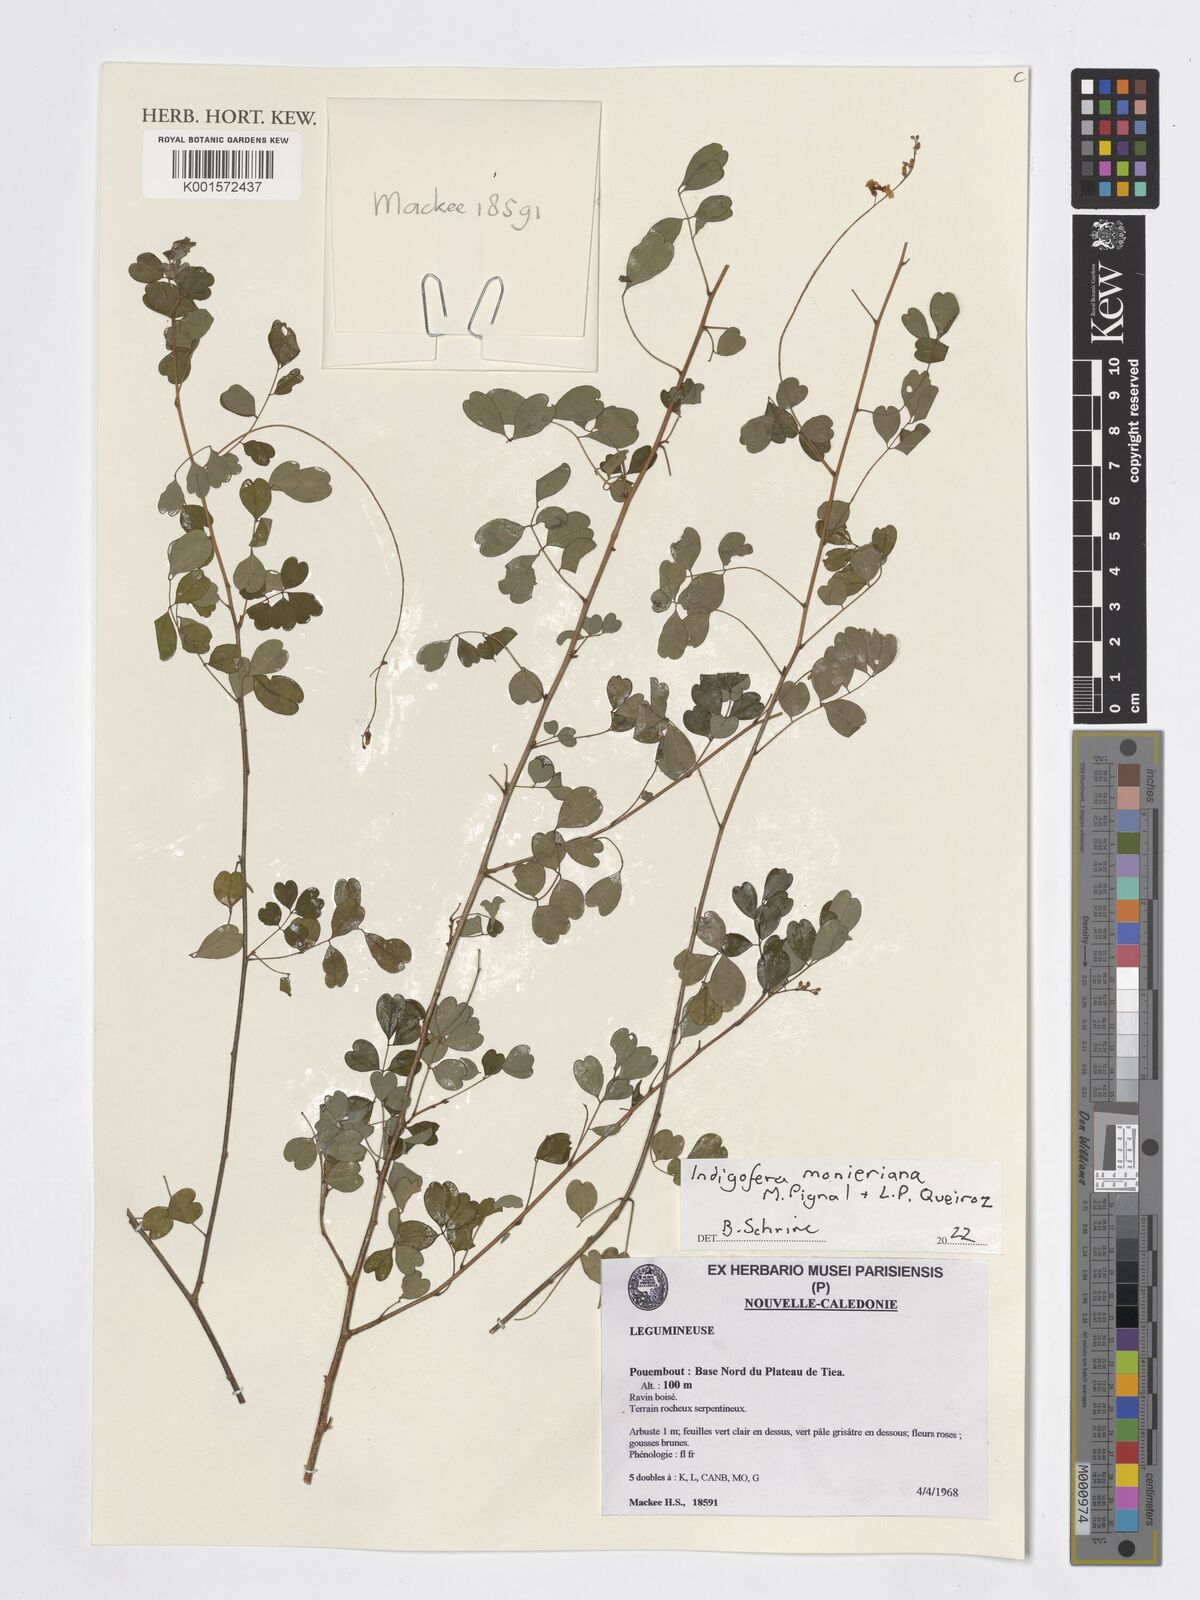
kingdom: Plantae
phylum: Tracheophyta
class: Magnoliopsida
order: Fabales
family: Fabaceae
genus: Indigofera
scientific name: Indigofera monieriana
